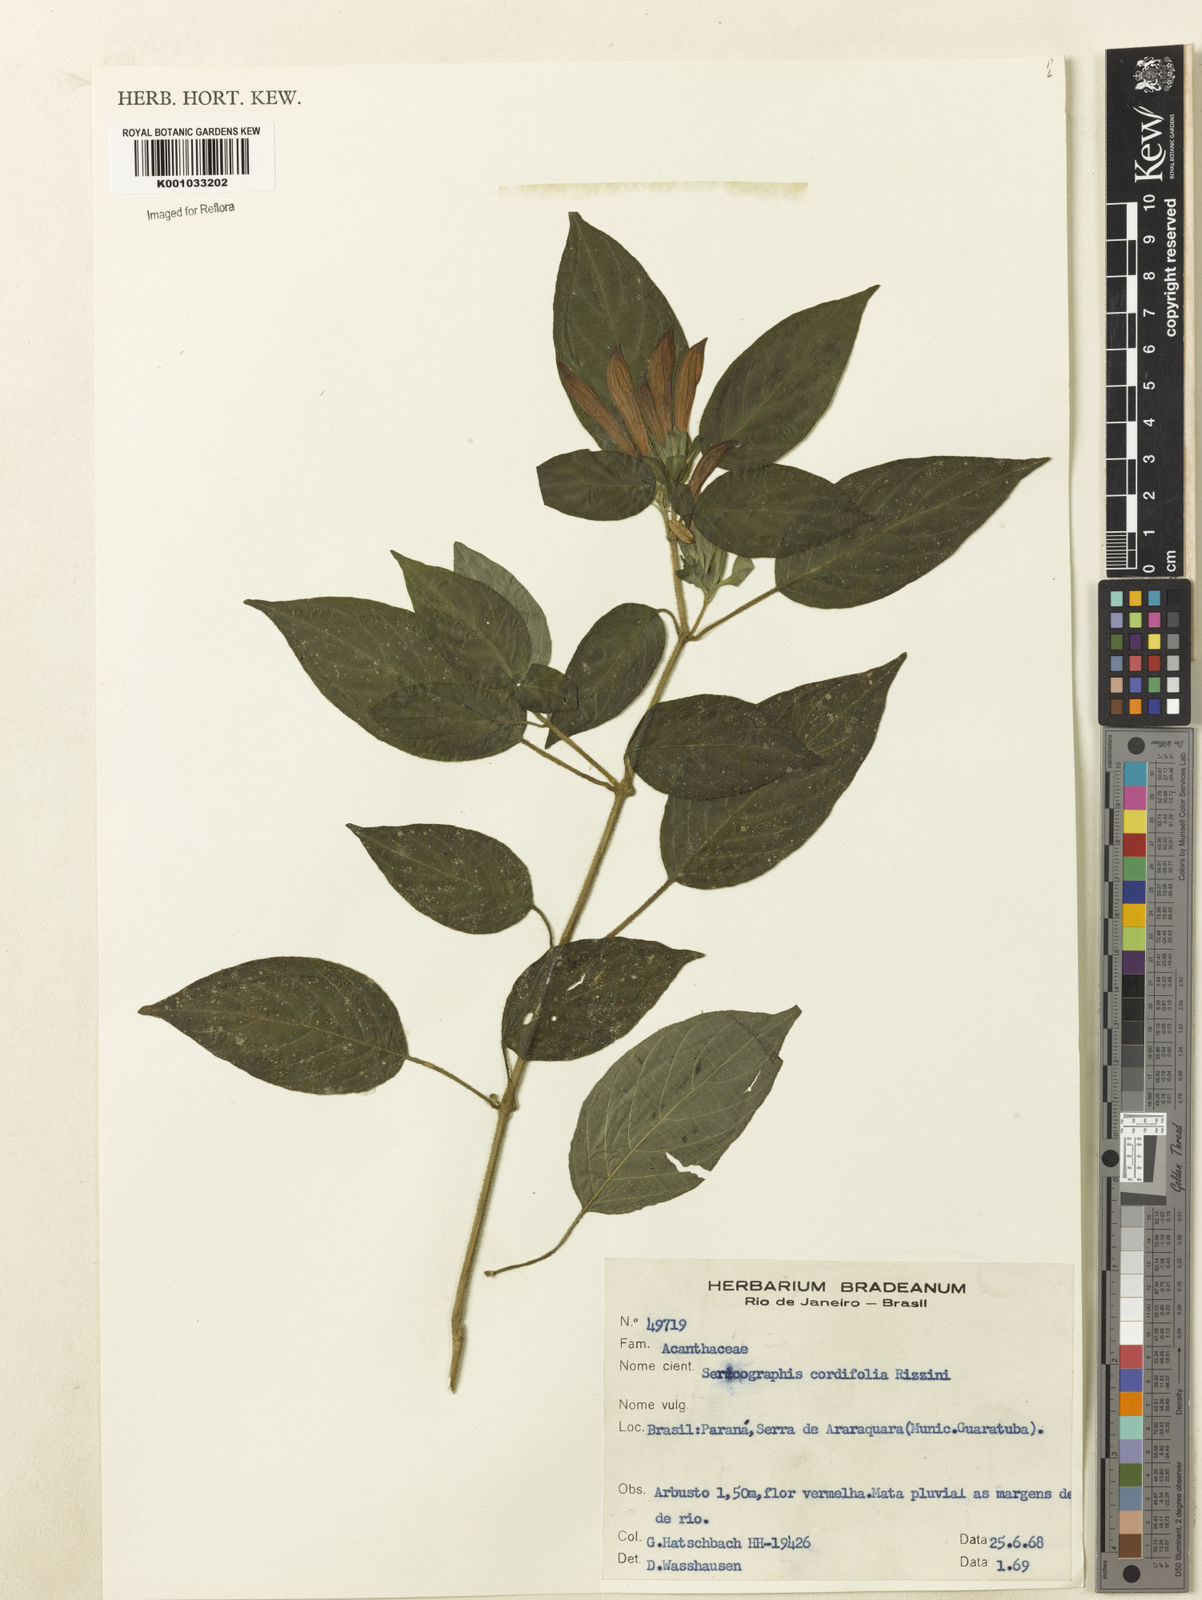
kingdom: Plantae
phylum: Tracheophyta
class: Magnoliopsida
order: Lamiales
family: Acanthaceae
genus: Andrographis
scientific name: Andrographis elongata
